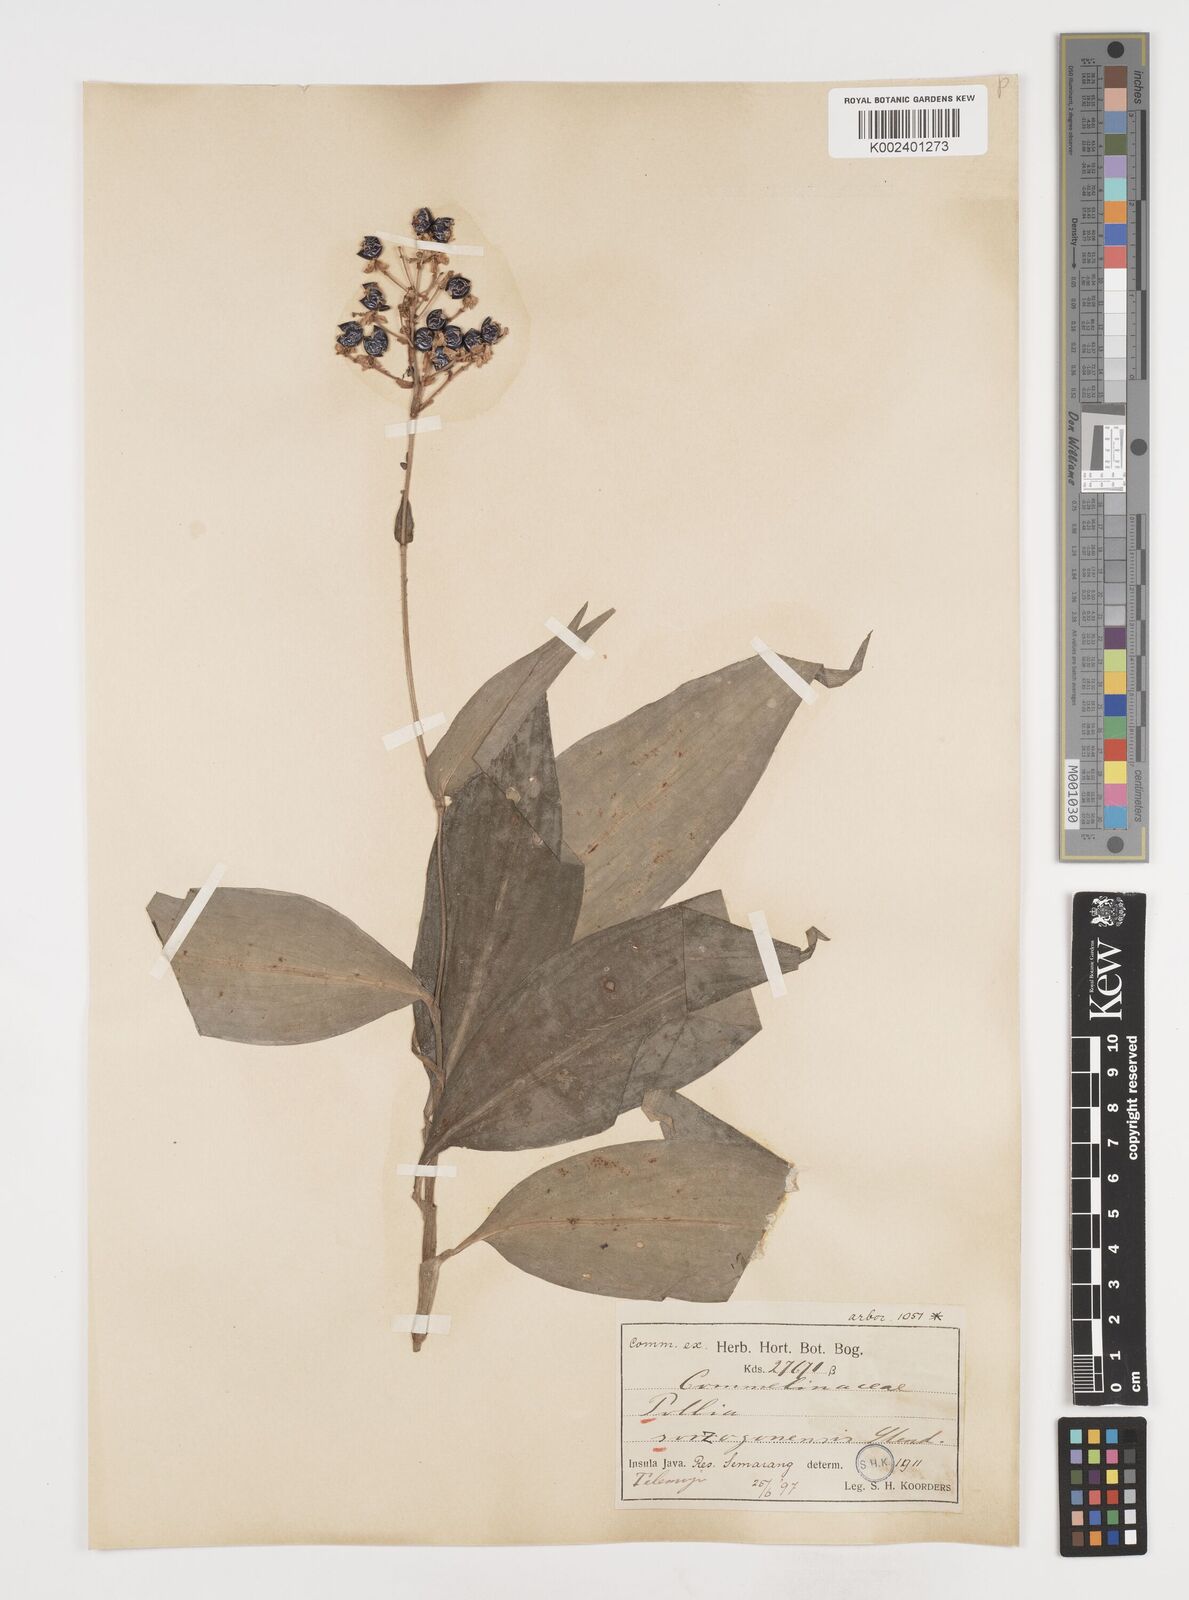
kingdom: Plantae
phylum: Tracheophyta
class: Liliopsida
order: Commelinales
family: Commelinaceae
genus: Pollia
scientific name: Pollia secundiflora
